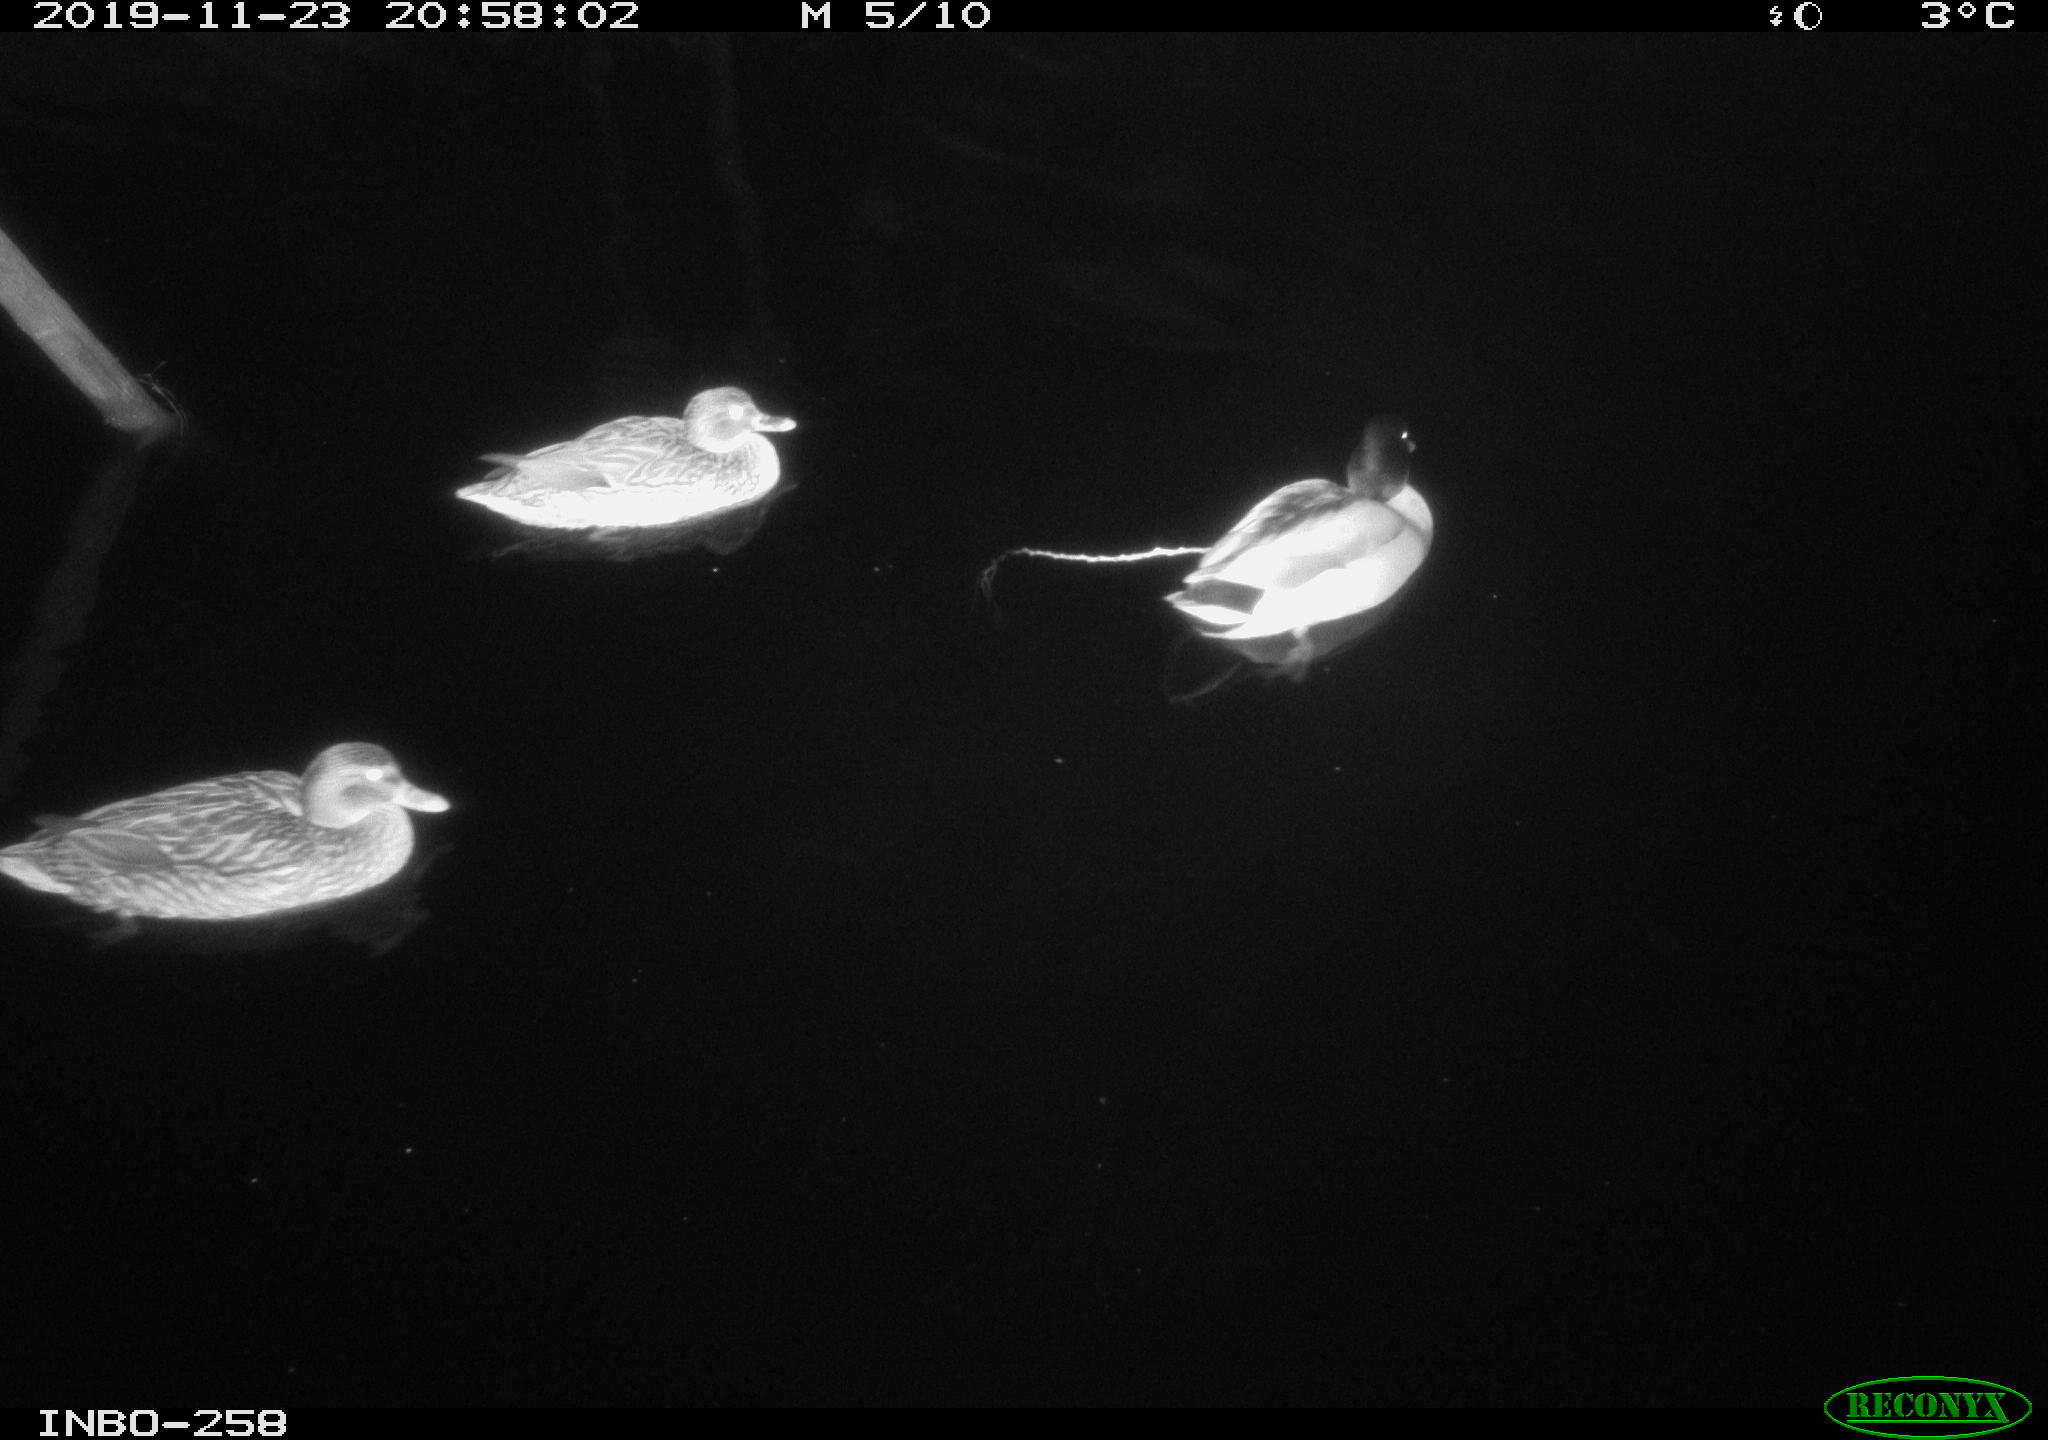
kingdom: Animalia
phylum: Chordata
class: Aves
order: Anseriformes
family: Anatidae
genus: Anas
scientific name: Anas platyrhynchos
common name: Mallard
